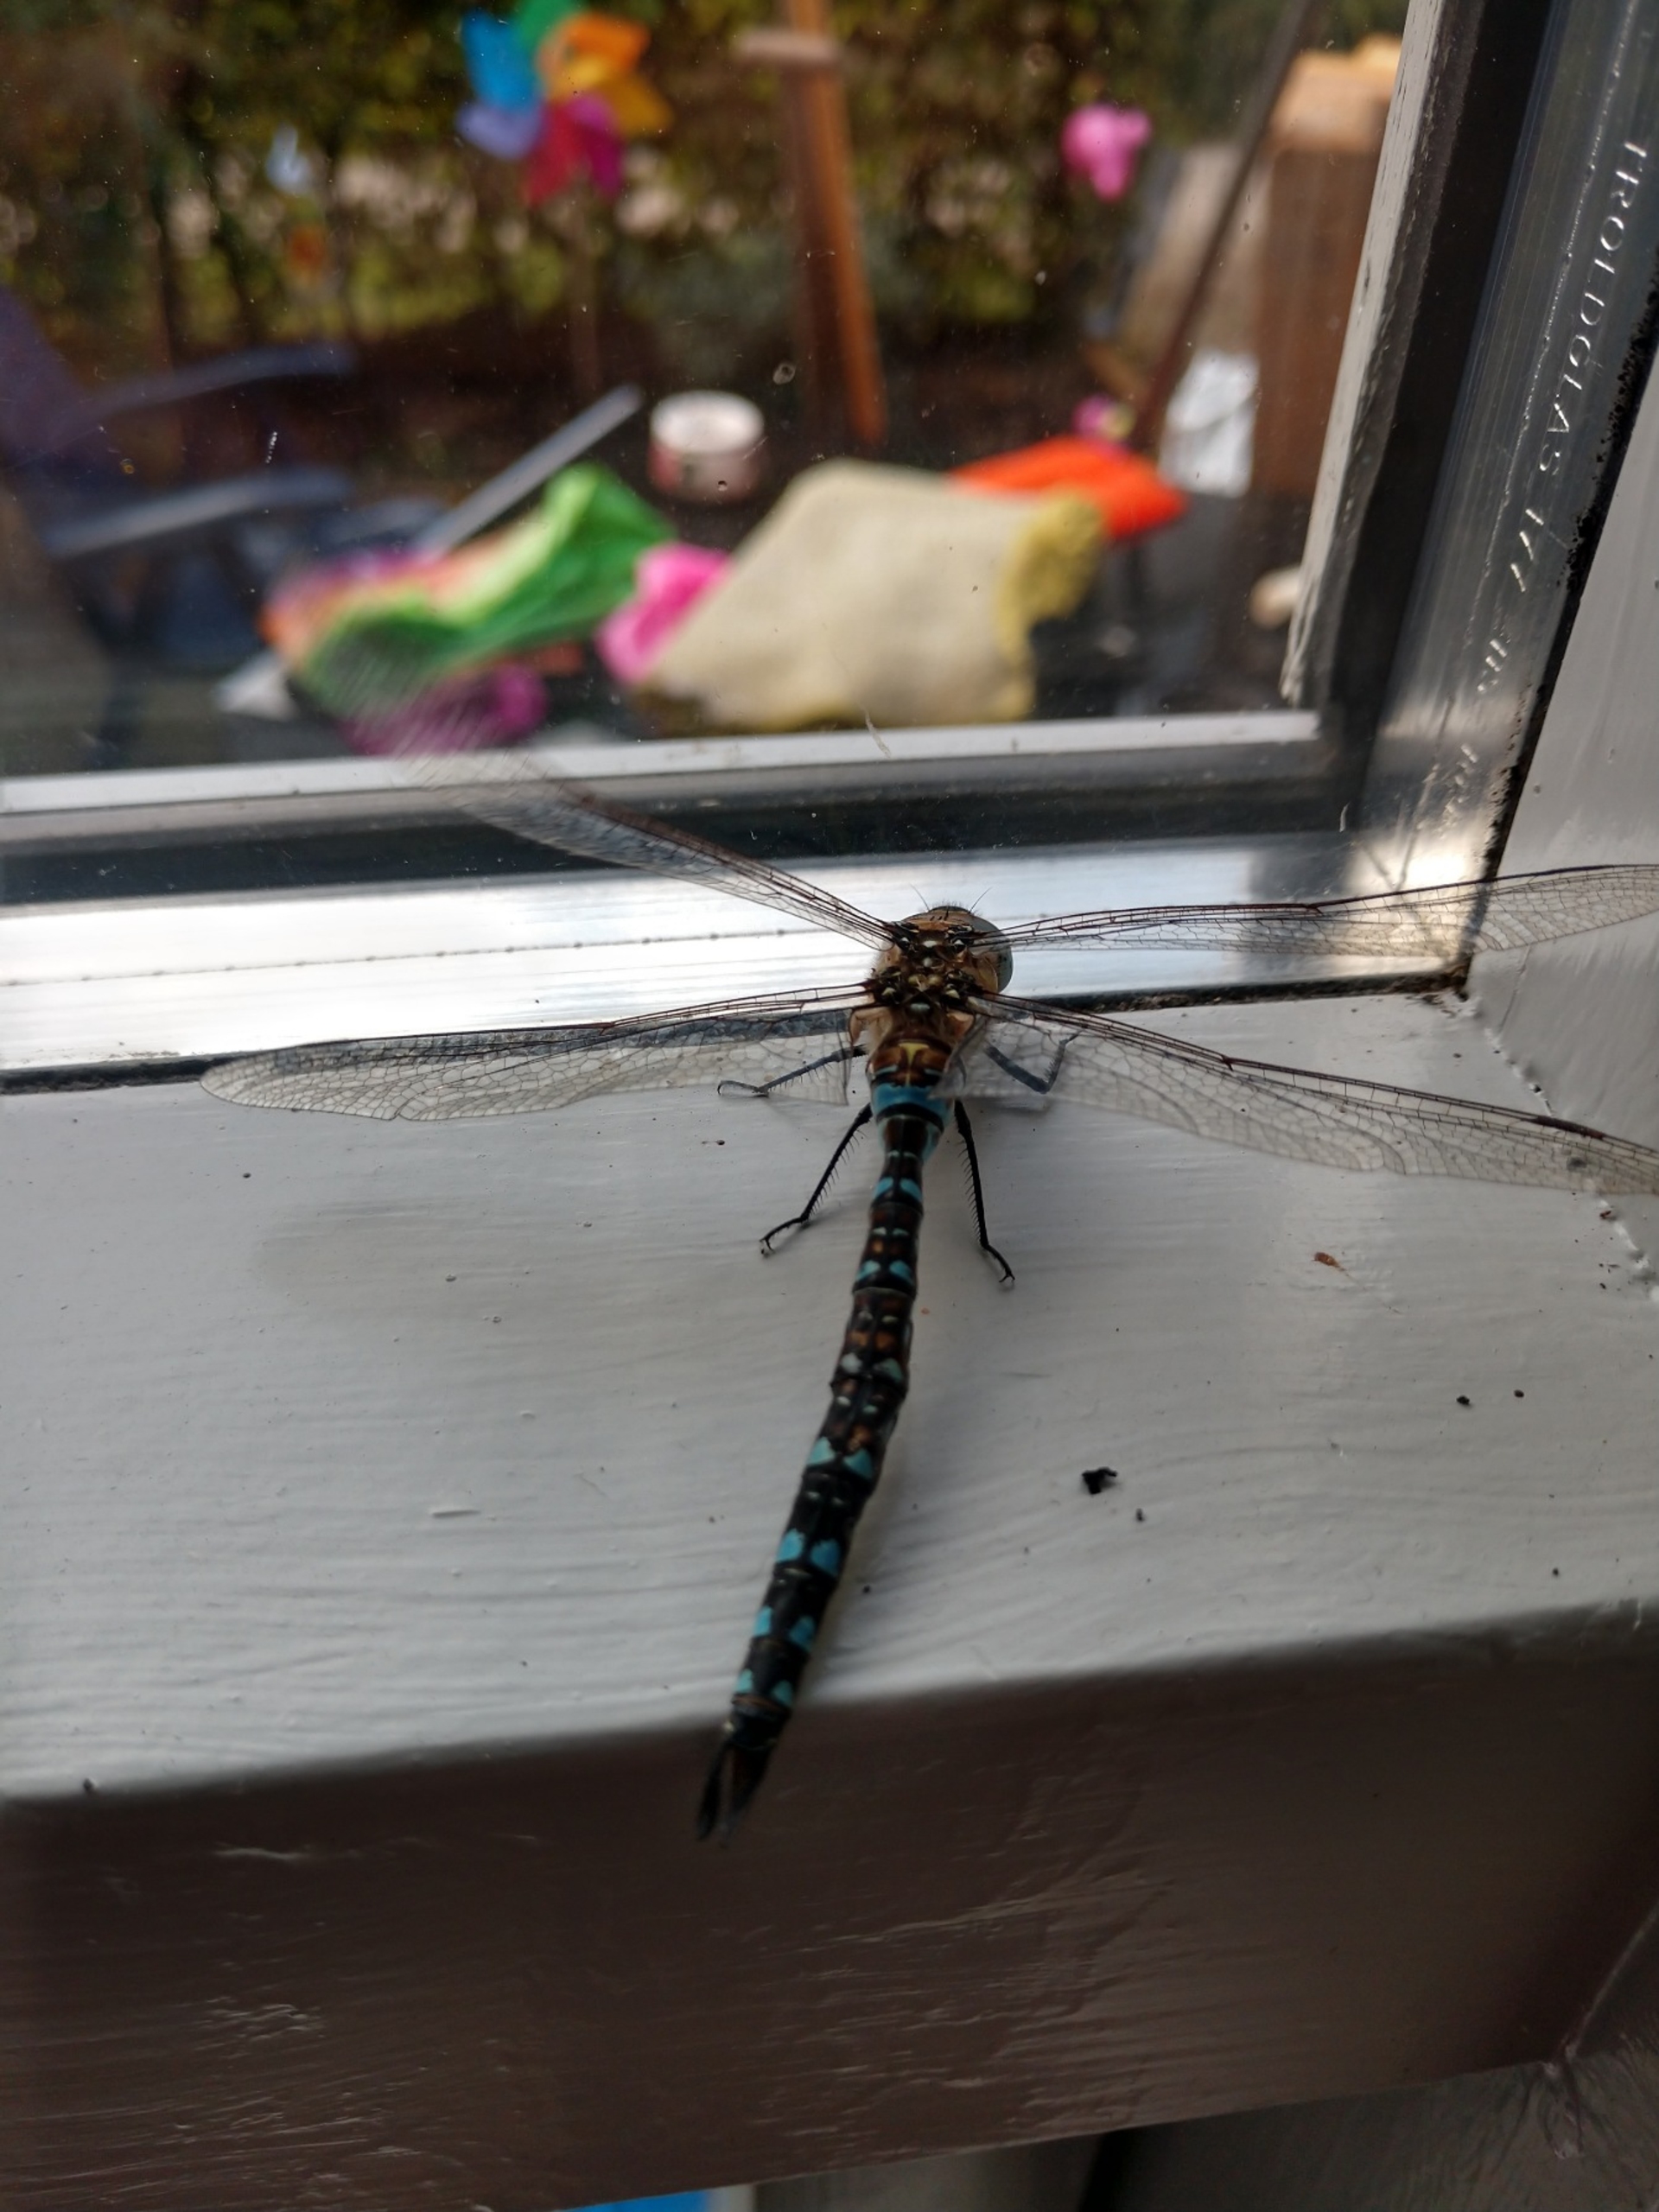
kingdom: Animalia
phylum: Arthropoda
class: Insecta
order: Odonata
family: Aeshnidae
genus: Aeshna
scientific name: Aeshna mixta
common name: Efterårs-mosaikguldsmed
